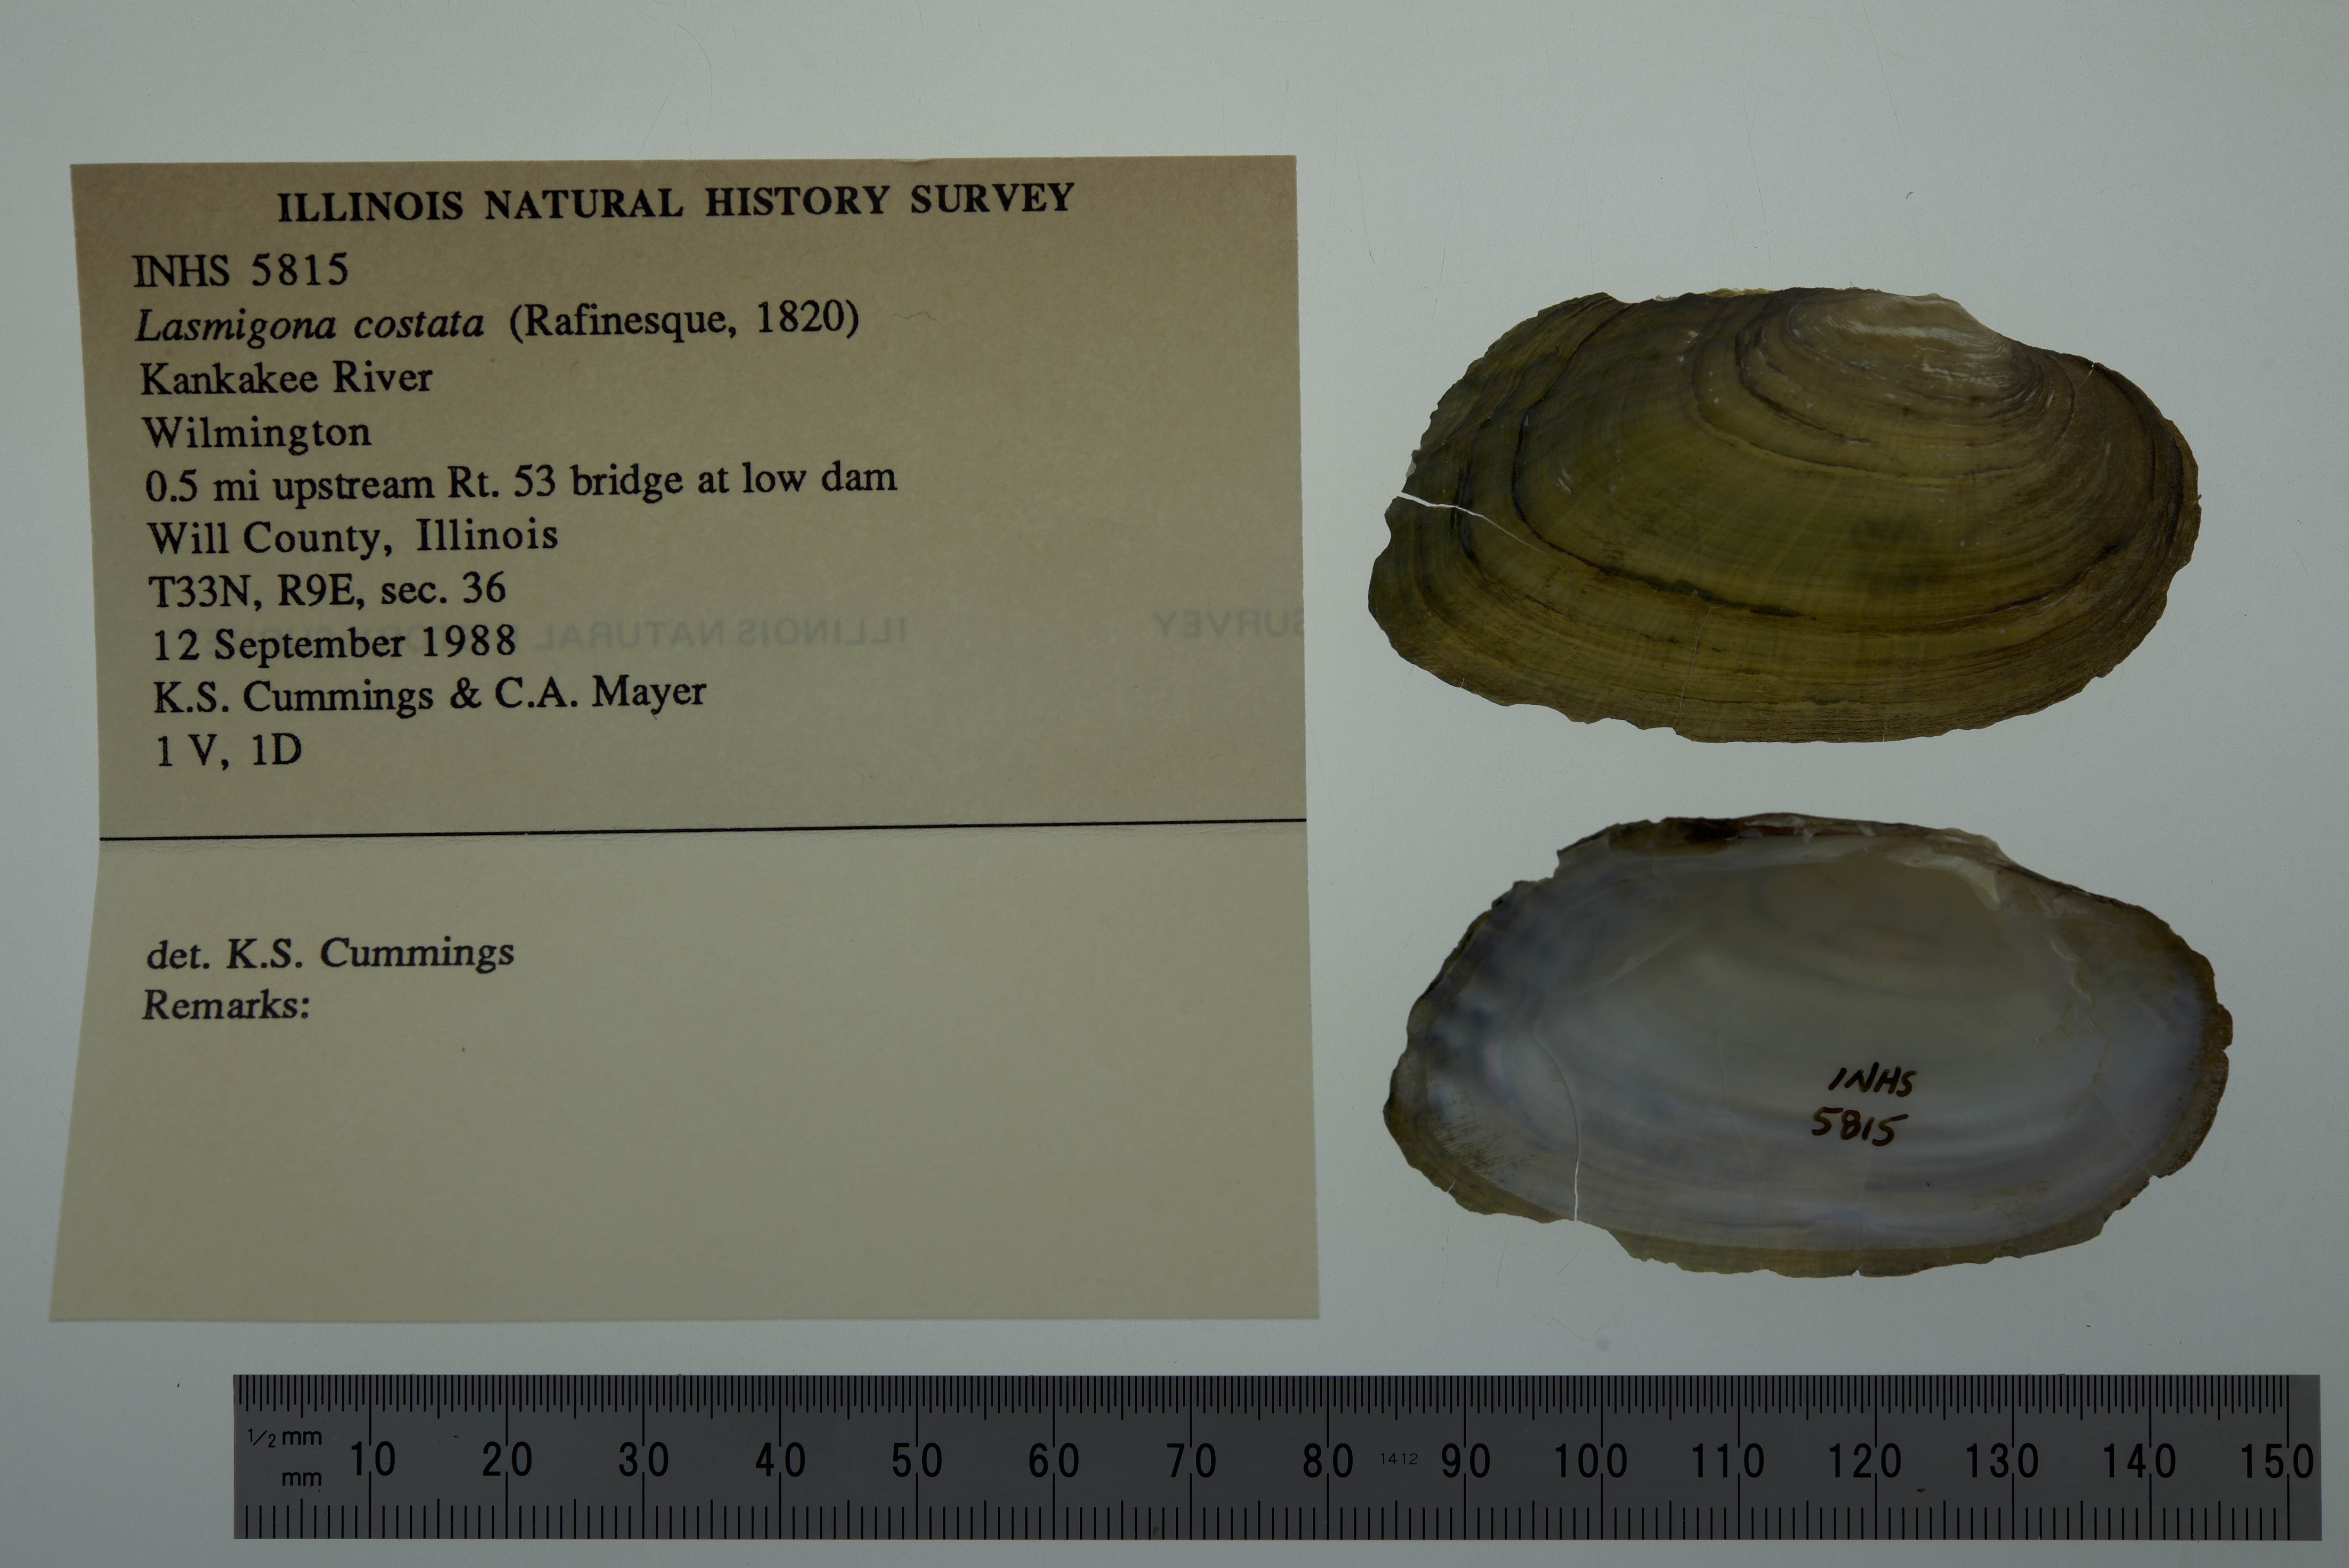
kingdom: Animalia
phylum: Mollusca
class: Bivalvia
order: Unionida
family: Unionidae
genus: Lasmigona
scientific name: Lasmigona costata
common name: Flutedshell
